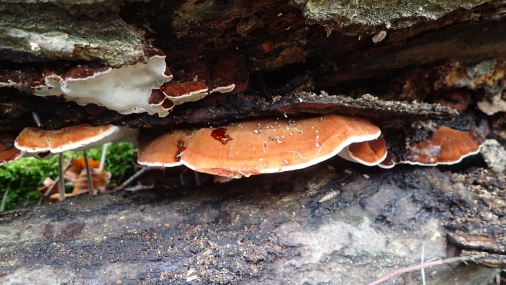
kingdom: Fungi
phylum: Basidiomycota
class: Agaricomycetes
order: Polyporales
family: Ischnodermataceae
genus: Ischnoderma
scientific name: Ischnoderma resinosum
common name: løv-tjæreporesvamp
